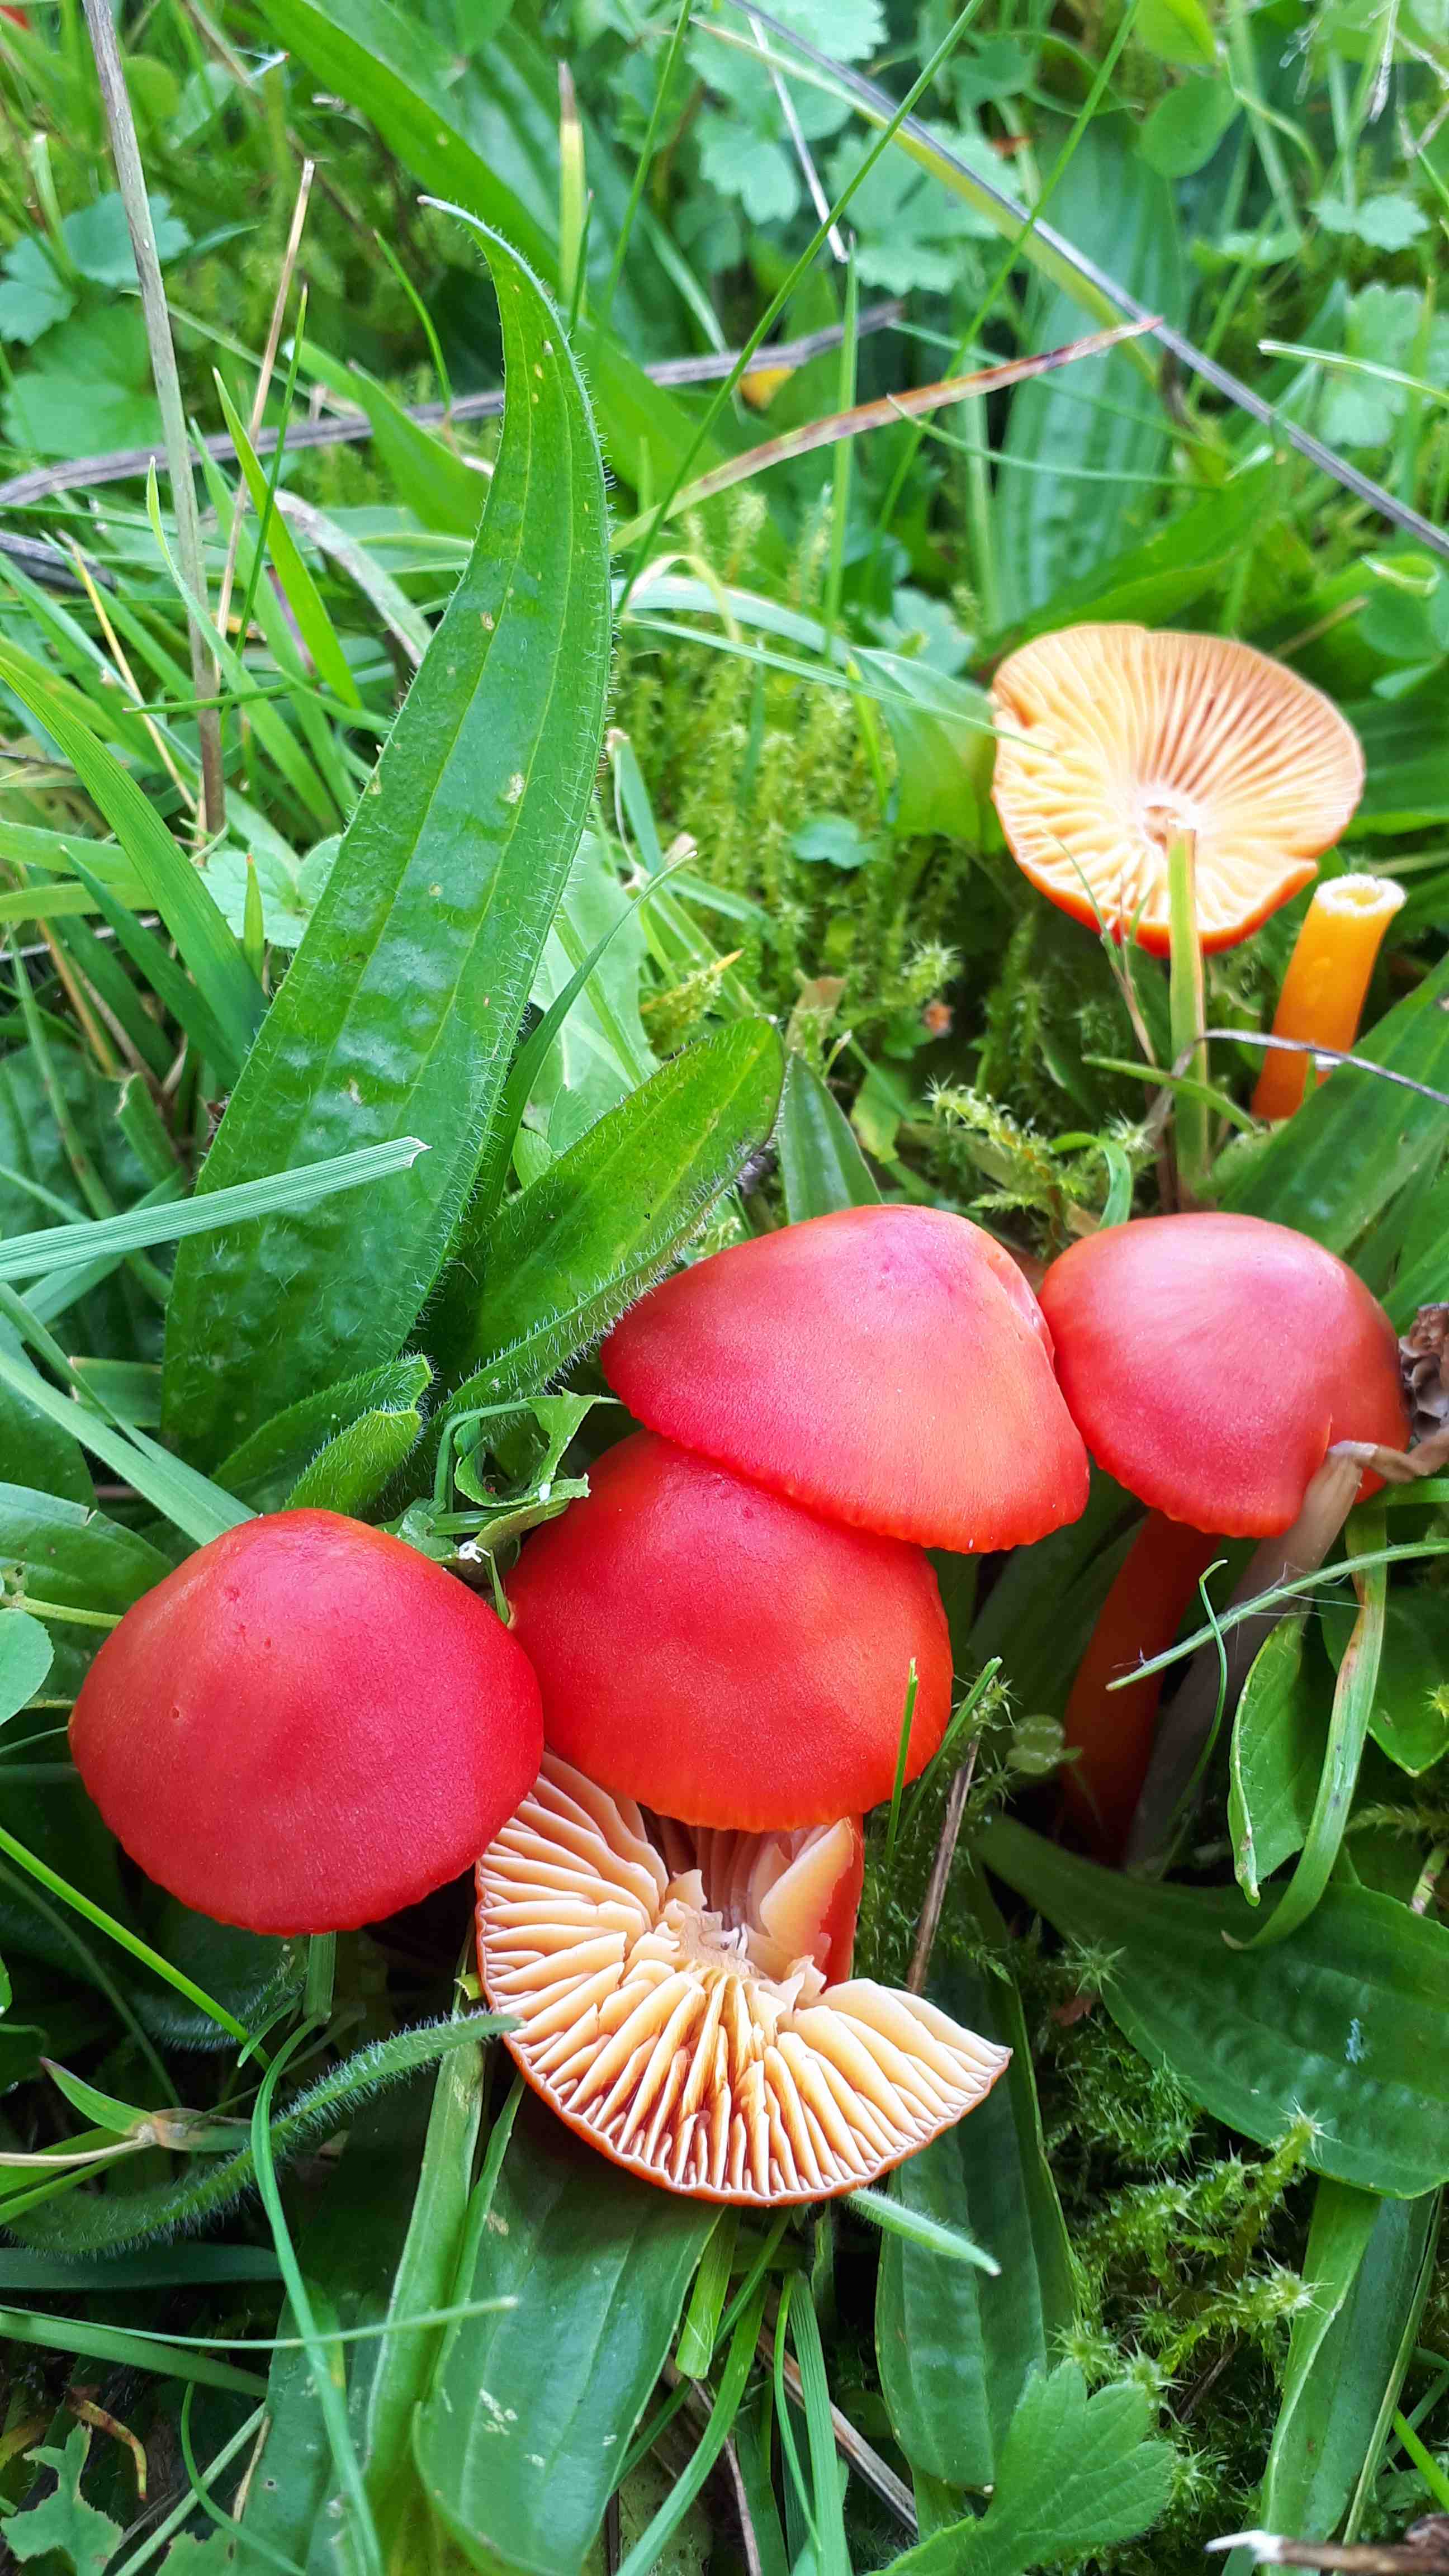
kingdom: Fungi
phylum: Basidiomycota
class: Agaricomycetes
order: Agaricales
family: Hygrophoraceae
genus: Hygrocybe
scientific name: Hygrocybe coccinea
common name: cinnober-vokshat
